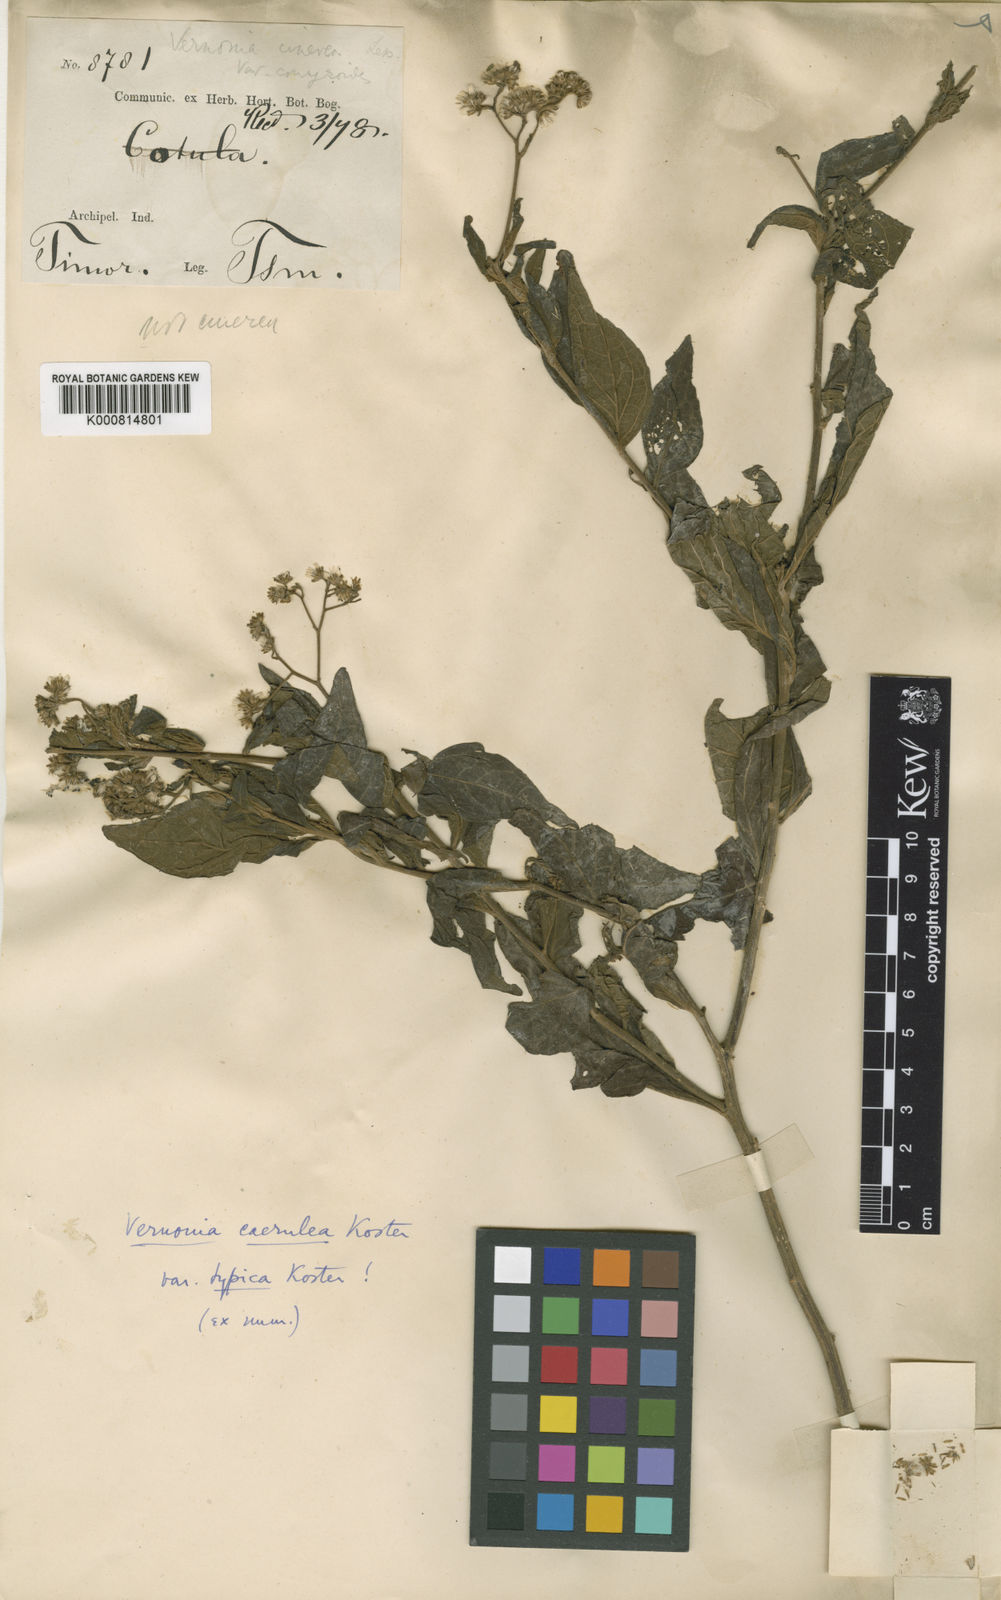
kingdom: Plantae
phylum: Tracheophyta
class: Magnoliopsida
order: Asterales
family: Asteraceae
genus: Vernonia
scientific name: Vernonia coerulea
